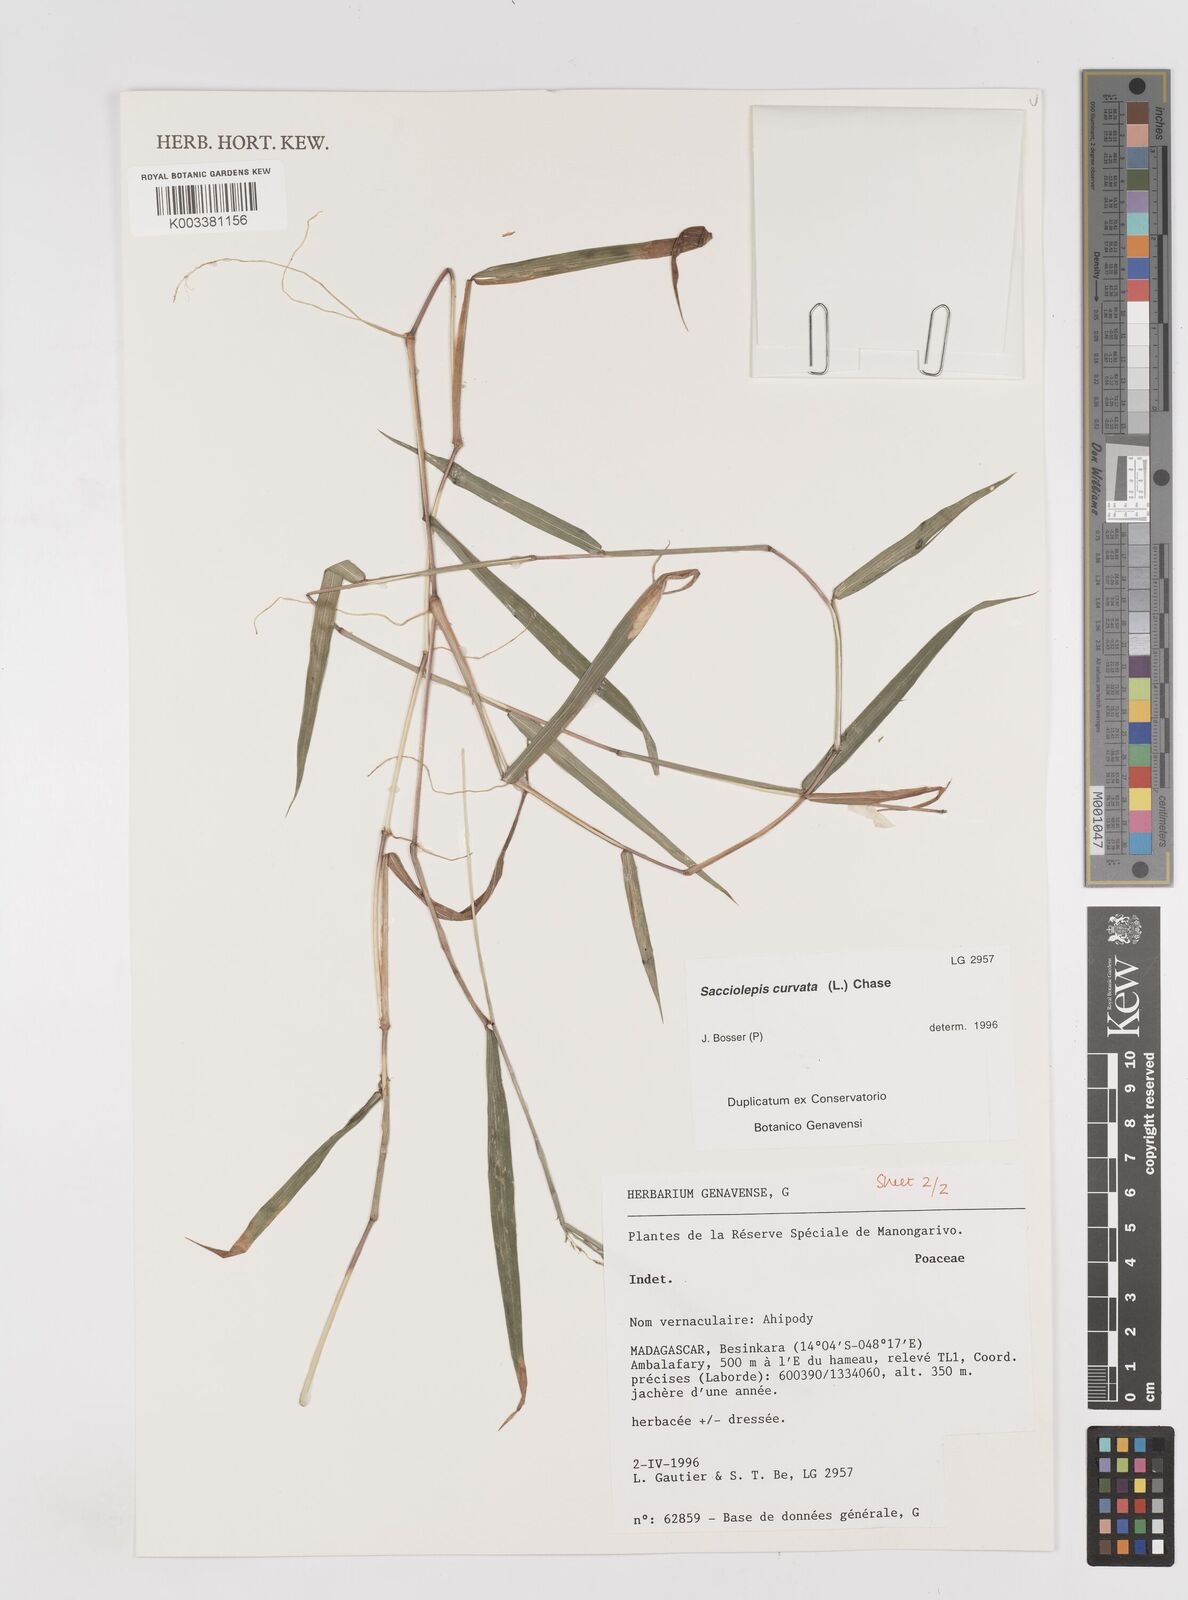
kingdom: Plantae
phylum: Tracheophyta
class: Liliopsida
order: Poales
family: Poaceae
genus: Sacciolepis
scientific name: Sacciolepis curvata
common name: Forest hood grass
